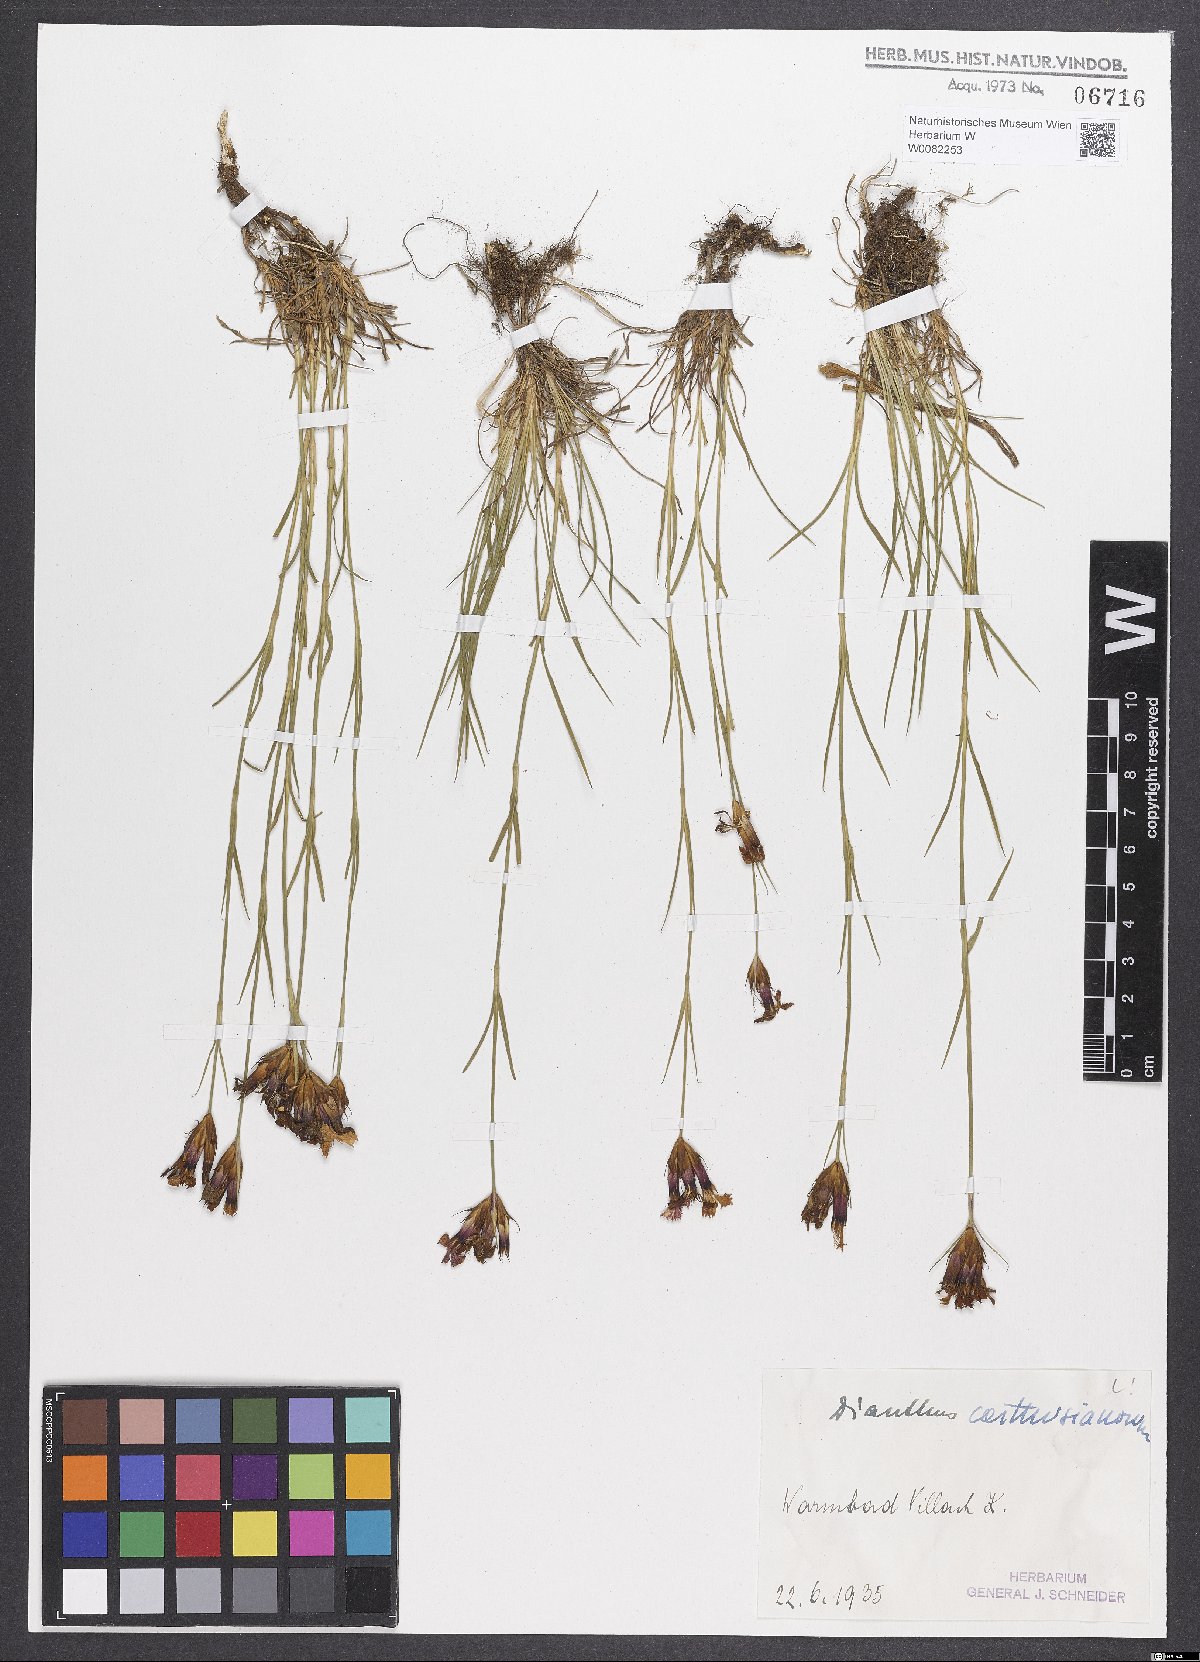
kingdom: Plantae
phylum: Tracheophyta
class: Magnoliopsida
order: Caryophyllales
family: Caryophyllaceae
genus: Dianthus
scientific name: Dianthus carthusianorum
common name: Carthusian pink
